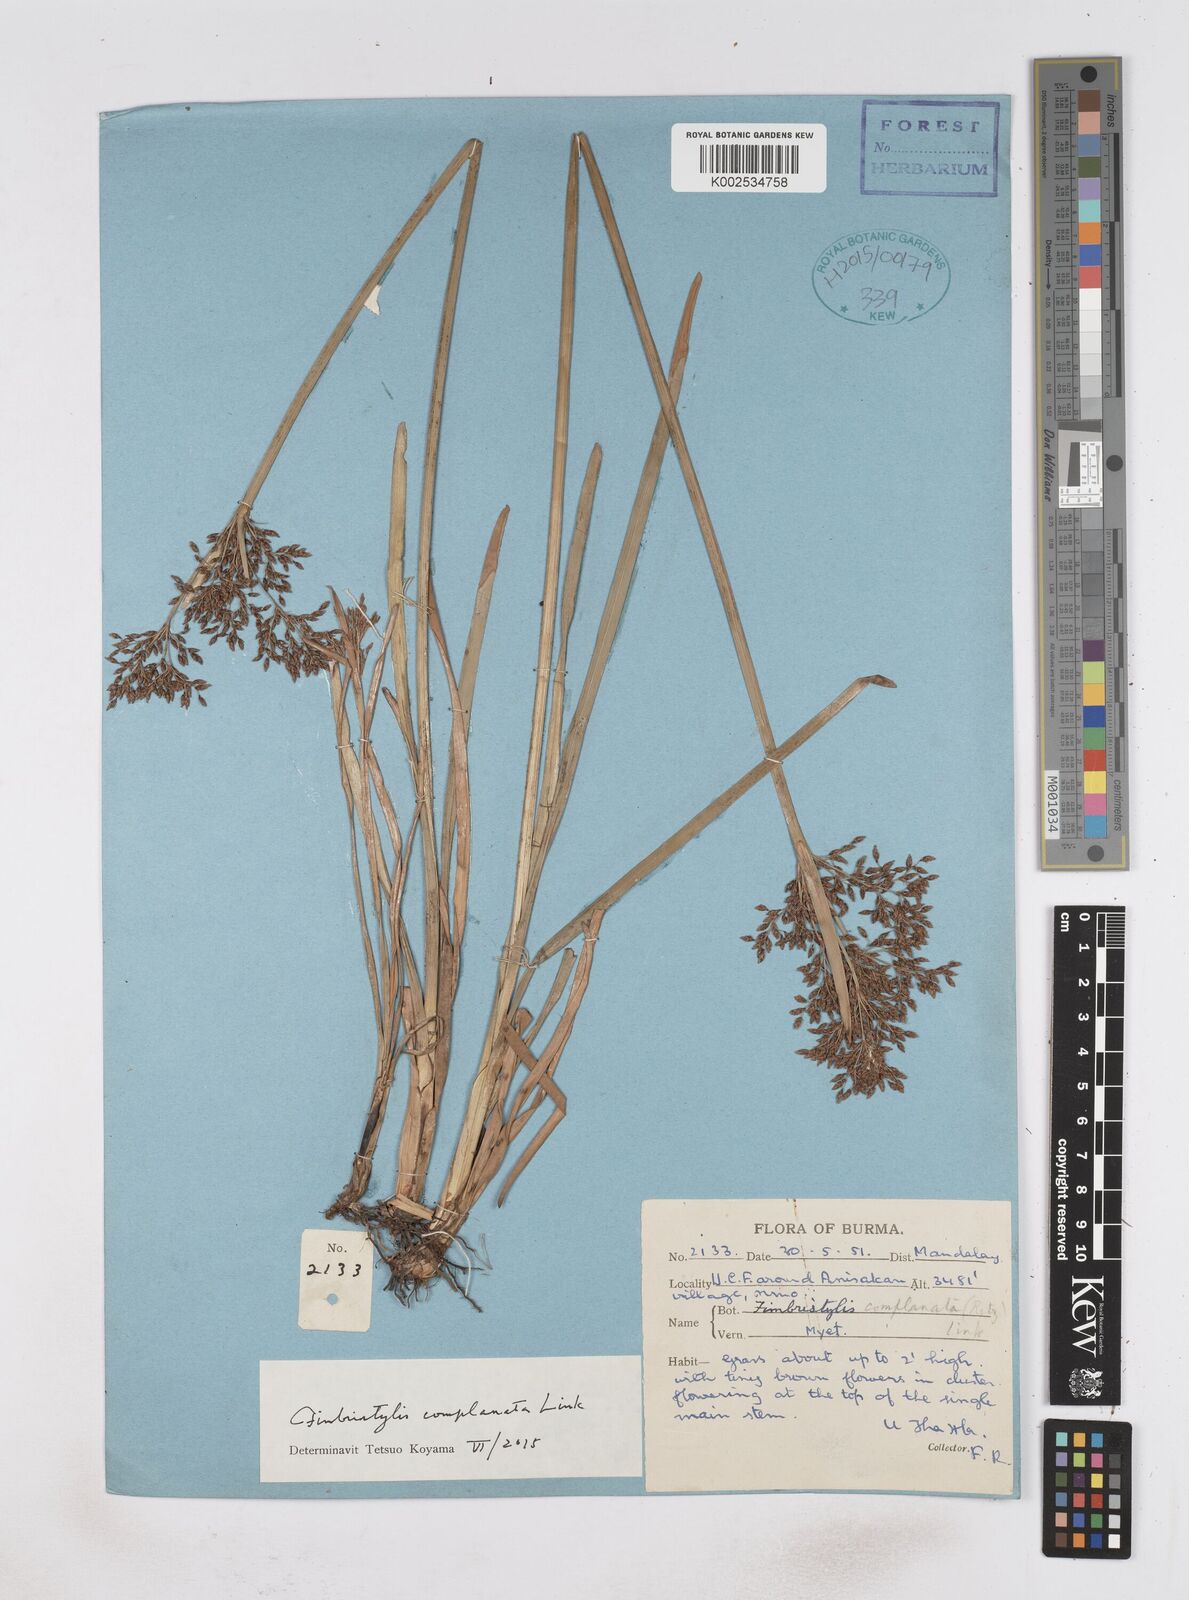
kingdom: Plantae
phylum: Tracheophyta
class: Liliopsida
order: Poales
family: Cyperaceae
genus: Fimbristylis
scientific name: Fimbristylis complanata
